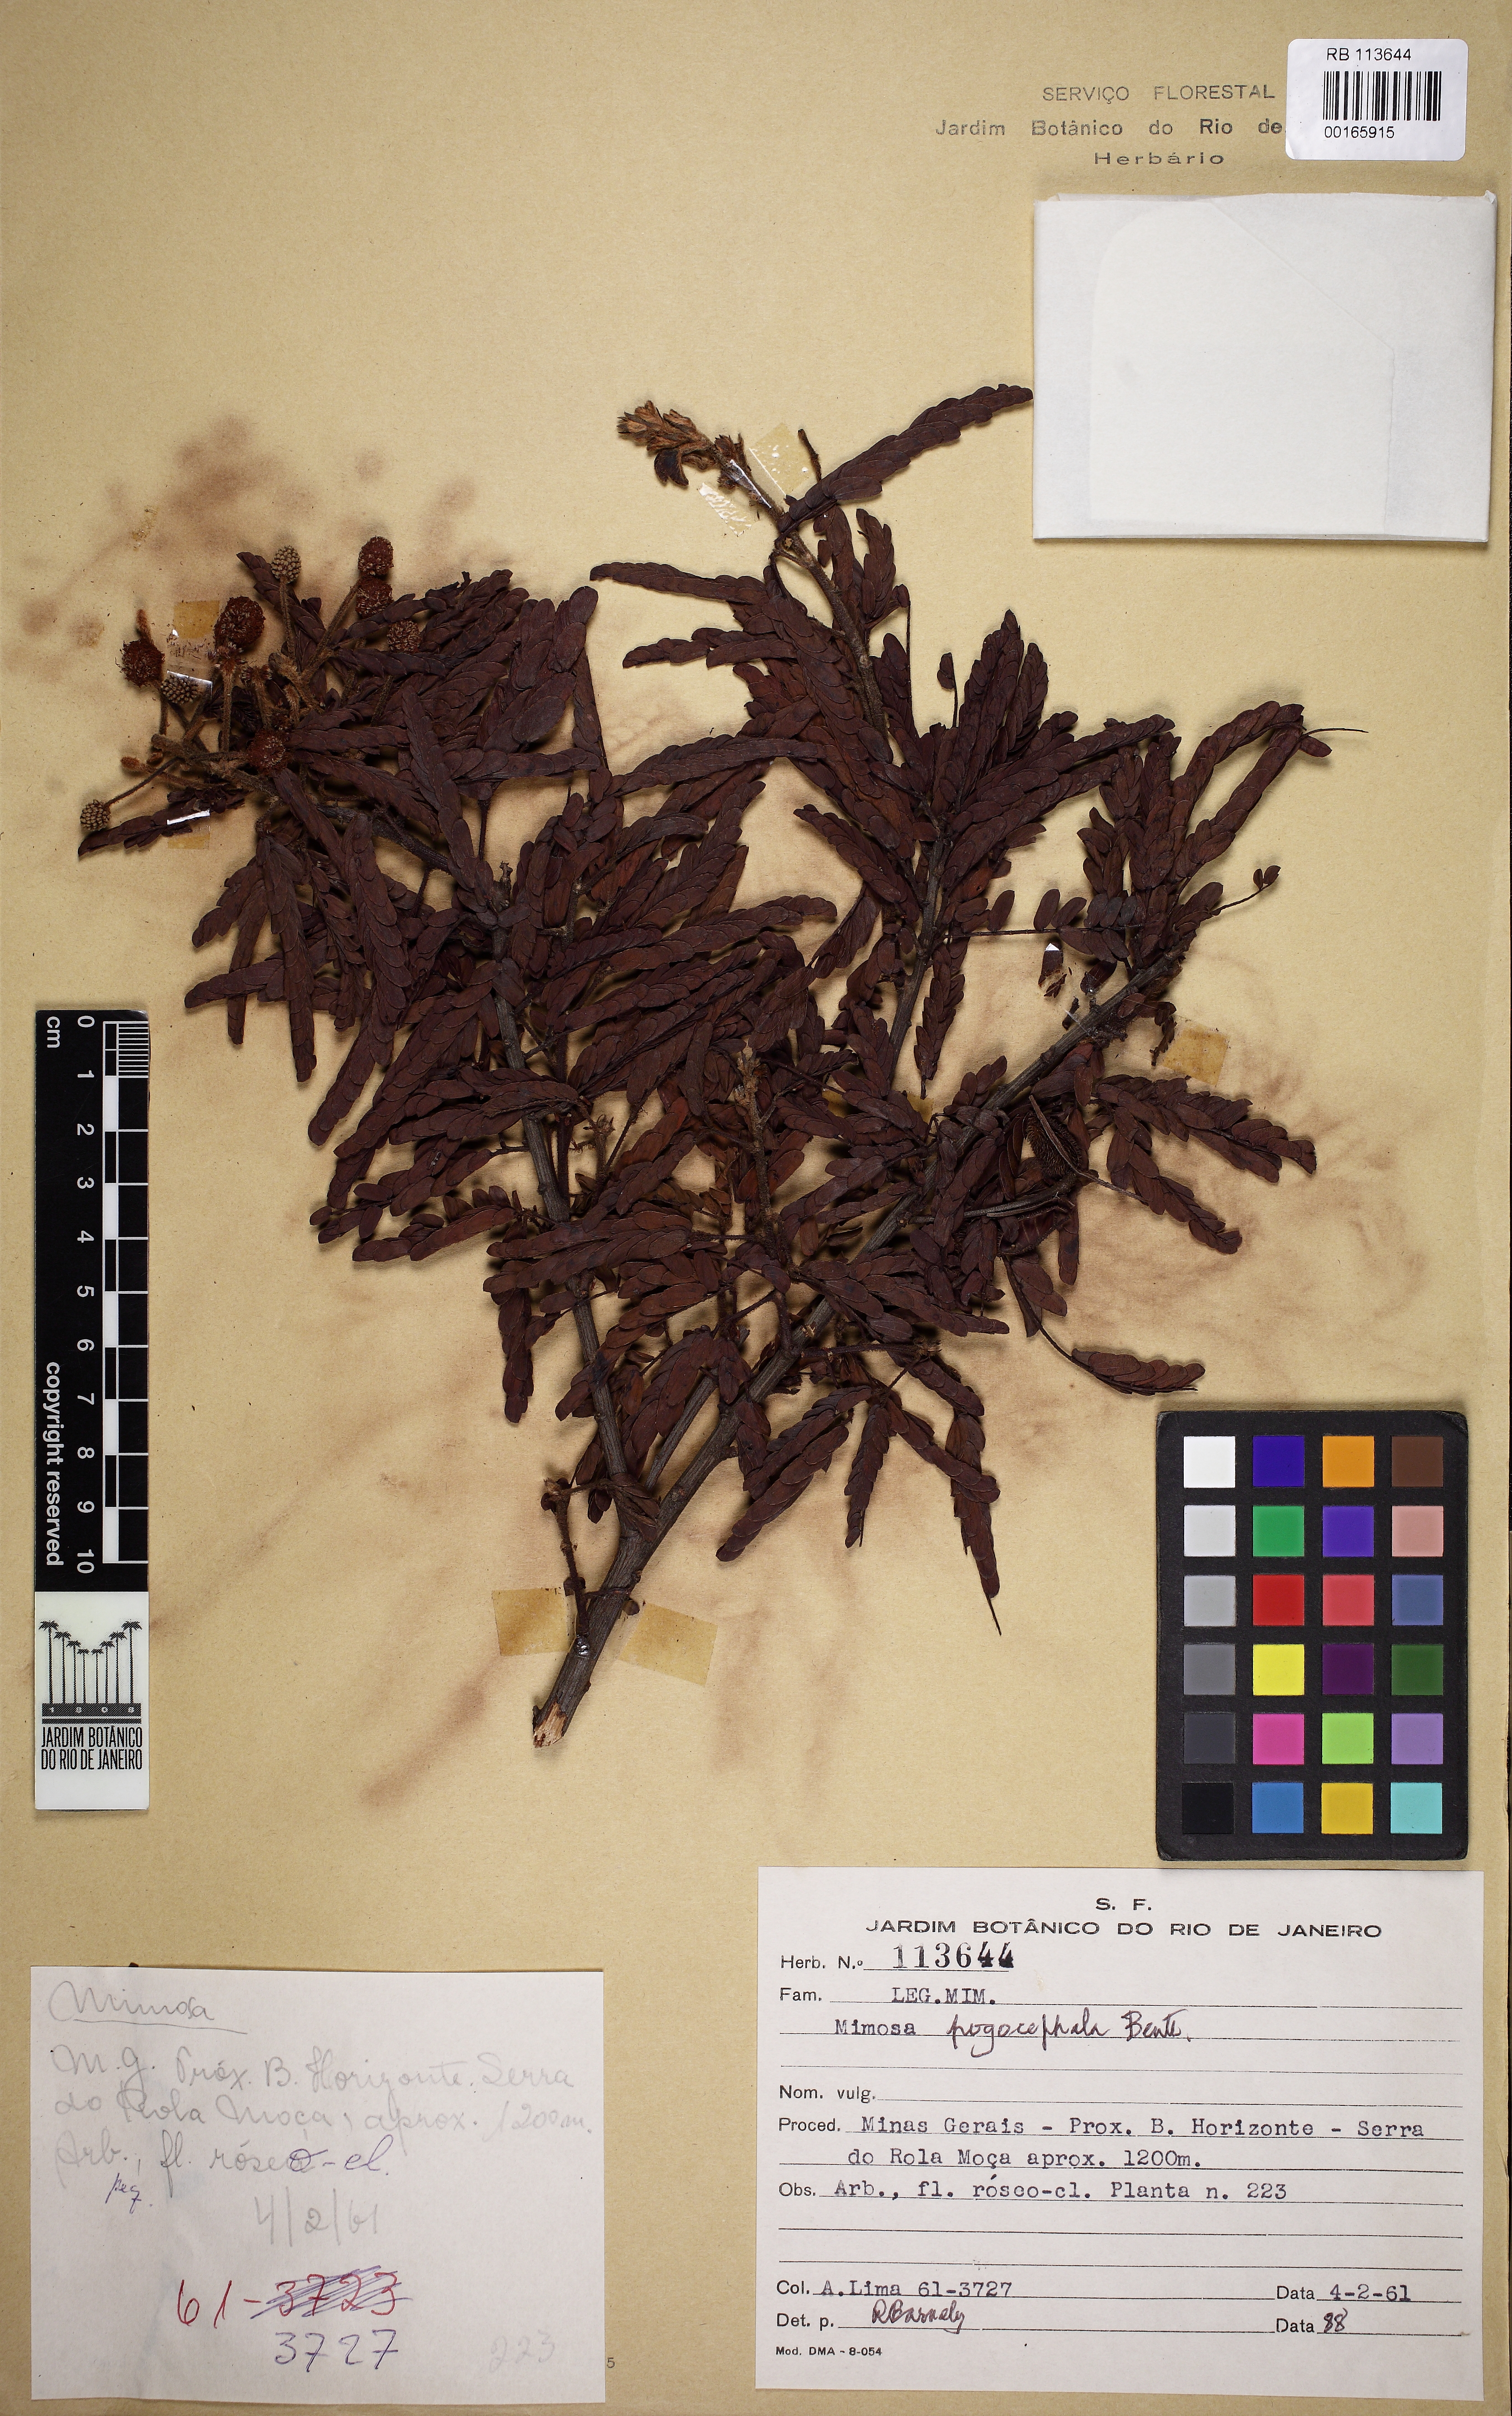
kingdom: Plantae
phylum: Tracheophyta
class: Magnoliopsida
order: Fabales
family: Fabaceae
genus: Mimosa
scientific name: Mimosa polycephala
